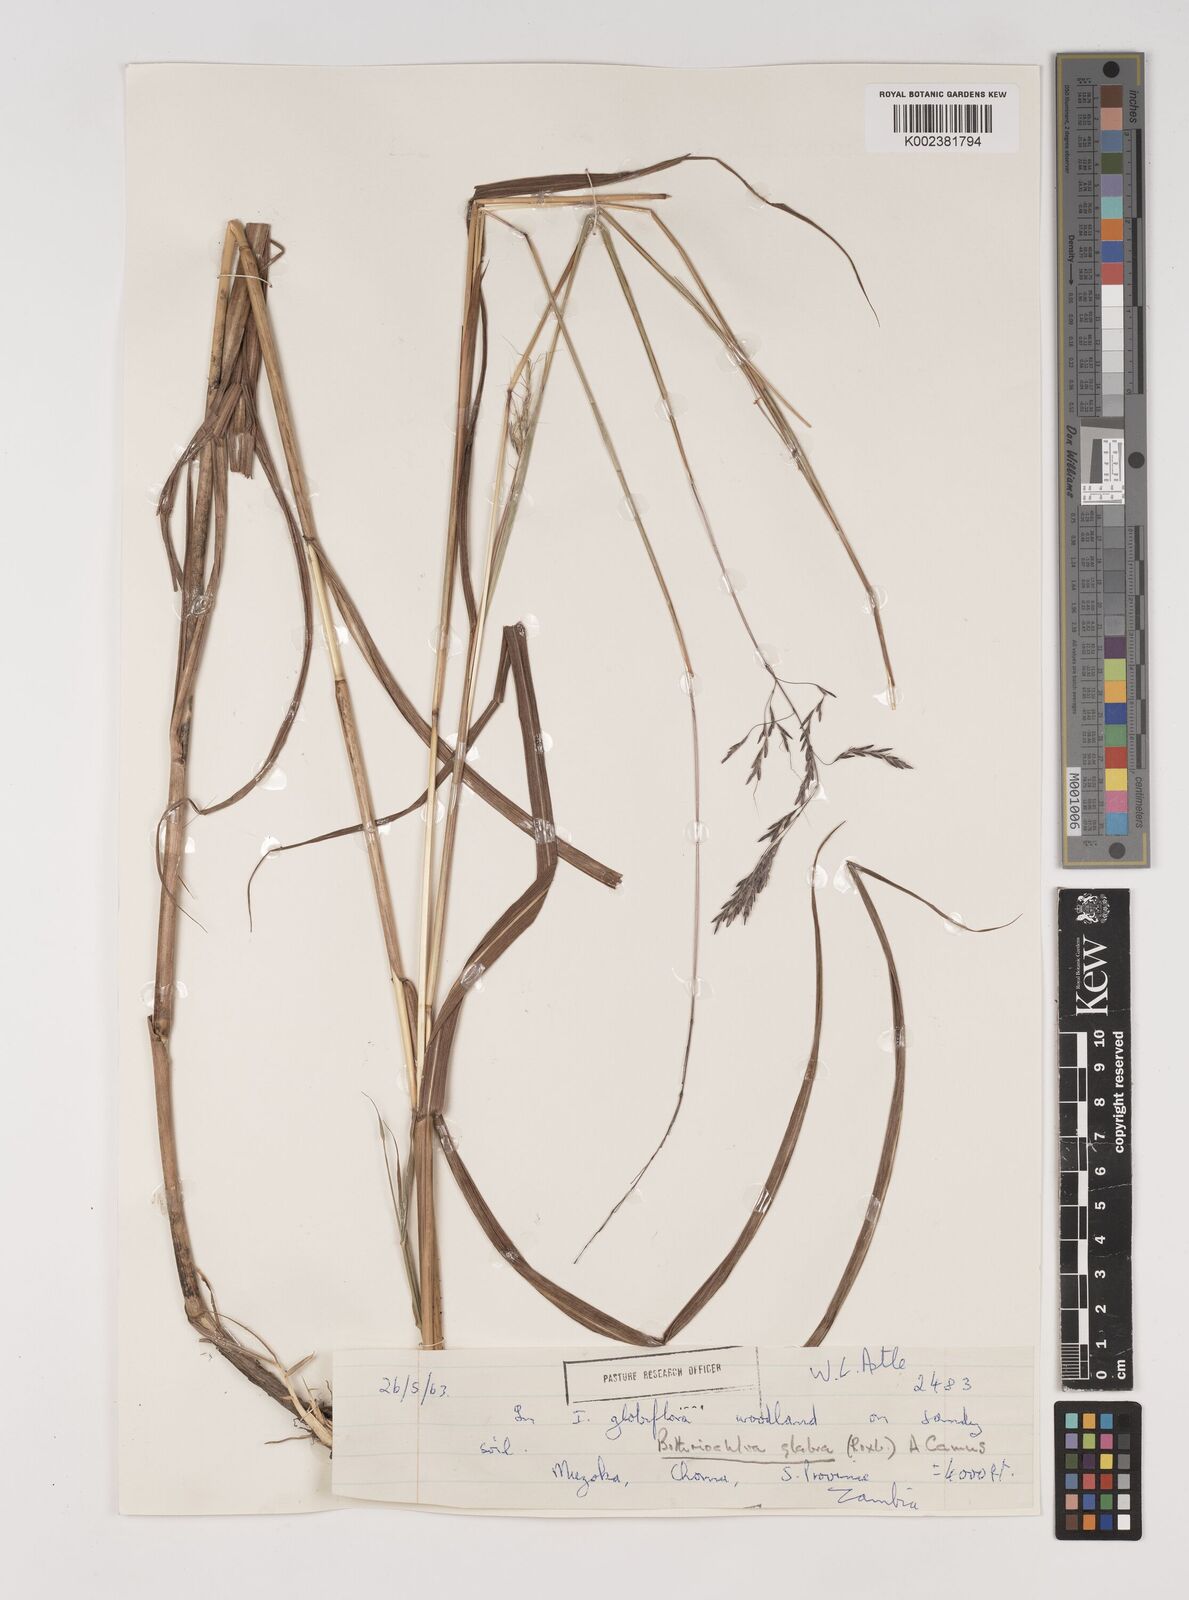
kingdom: Plantae
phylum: Tracheophyta
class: Liliopsida
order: Poales
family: Poaceae
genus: Bothriochloa
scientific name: Bothriochloa bladhii
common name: Caucasian bluestem
